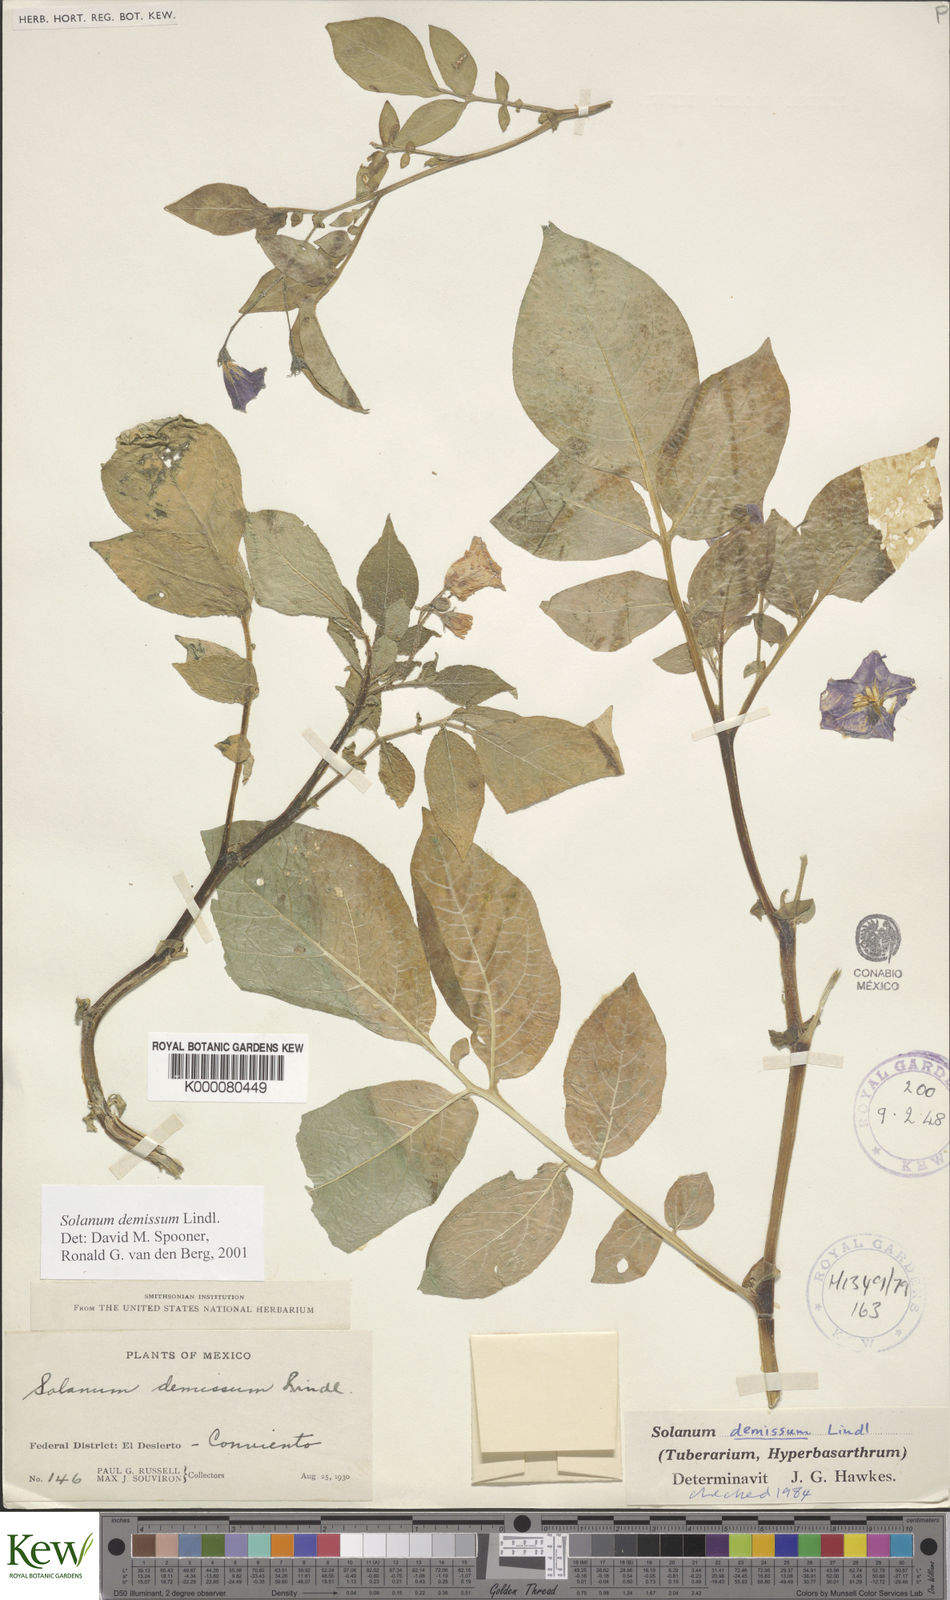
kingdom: Plantae
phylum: Tracheophyta
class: Magnoliopsida
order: Solanales
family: Solanaceae
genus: Solanum
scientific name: Solanum demissum
